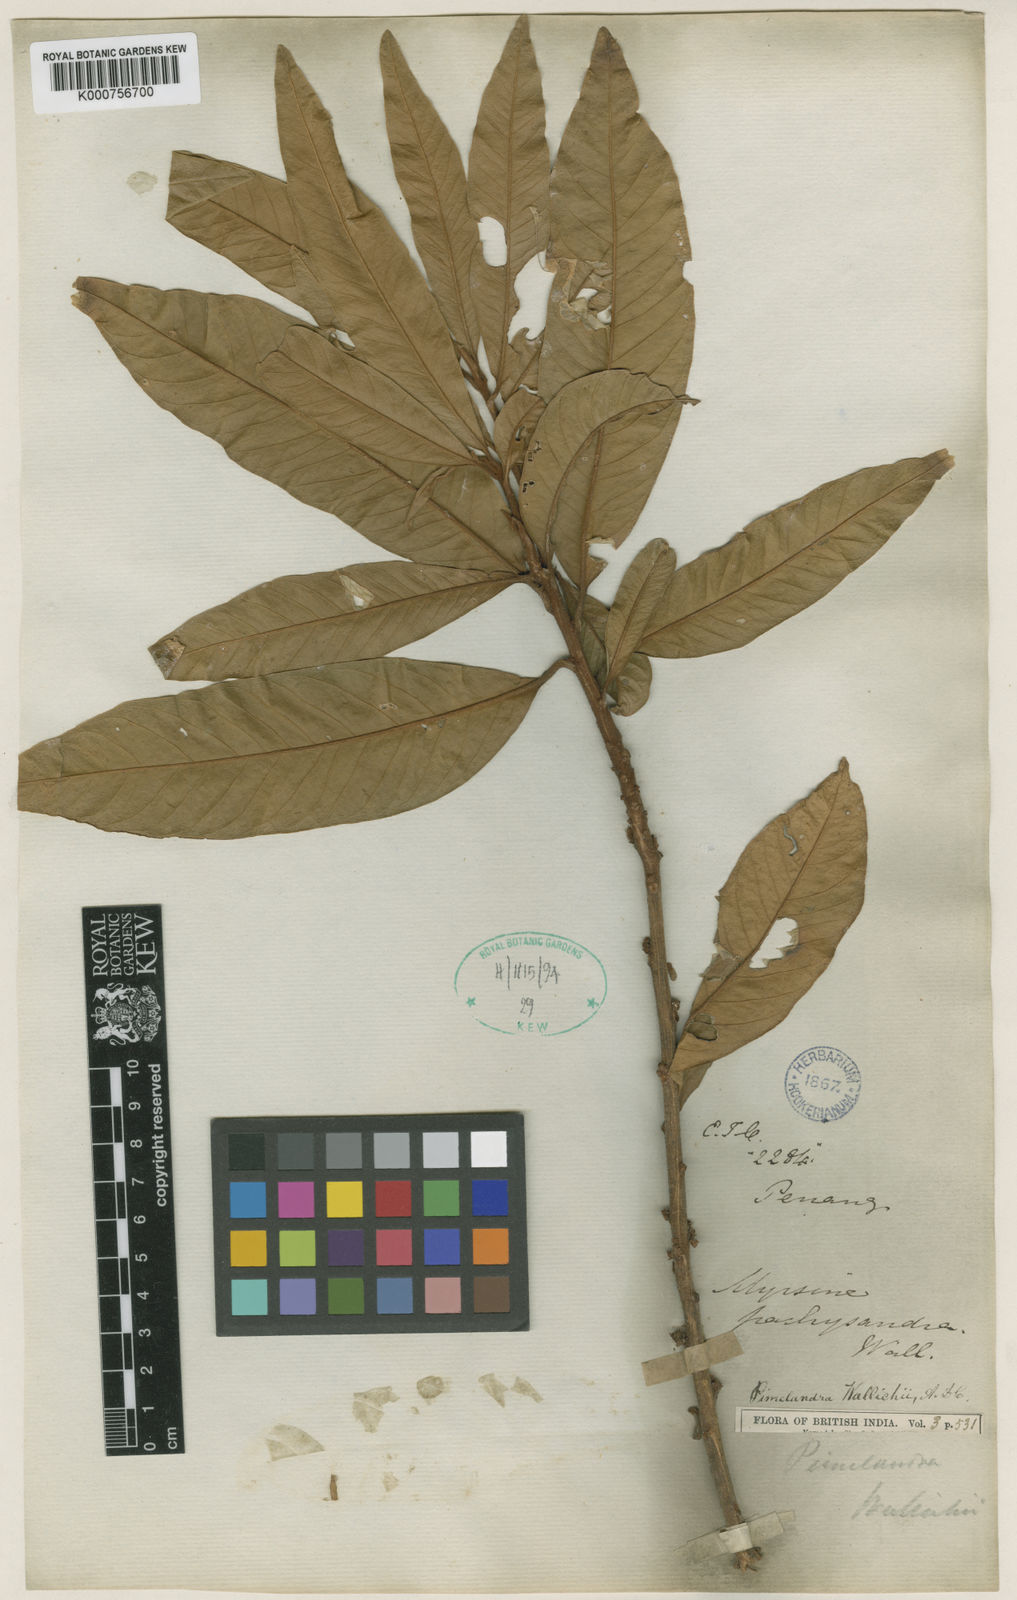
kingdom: Plantae
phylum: Tracheophyta
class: Magnoliopsida
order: Ericales
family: Primulaceae
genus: Ardisia
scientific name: Ardisia pachysandra
